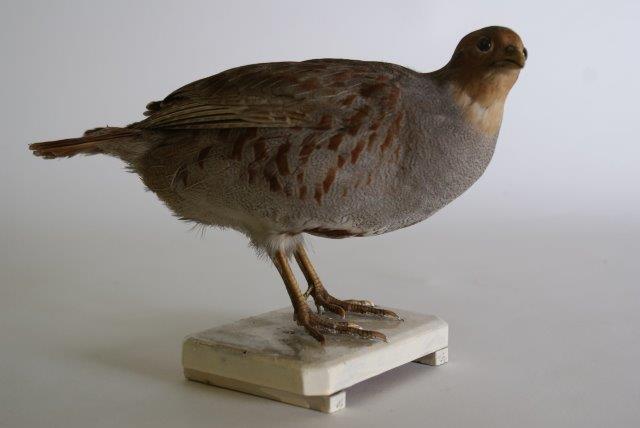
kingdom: Animalia
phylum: Chordata
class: Aves
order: Galliformes
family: Phasianidae
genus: Perdix
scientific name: Perdix perdix
